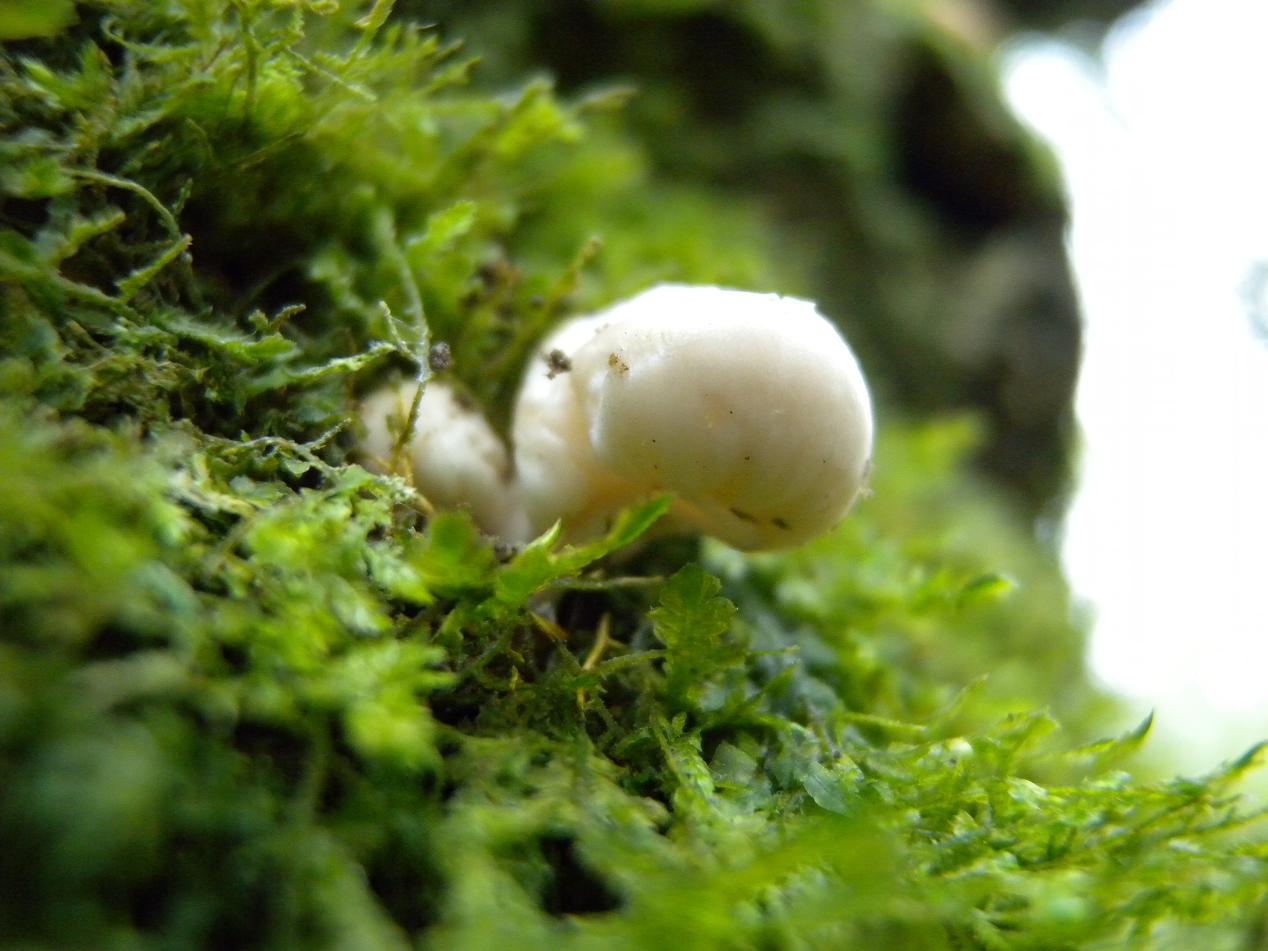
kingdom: Fungi
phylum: Basidiomycota
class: Agaricomycetes
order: Agaricales
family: Physalacriaceae
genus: Mucidula
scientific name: Mucidula mucida
